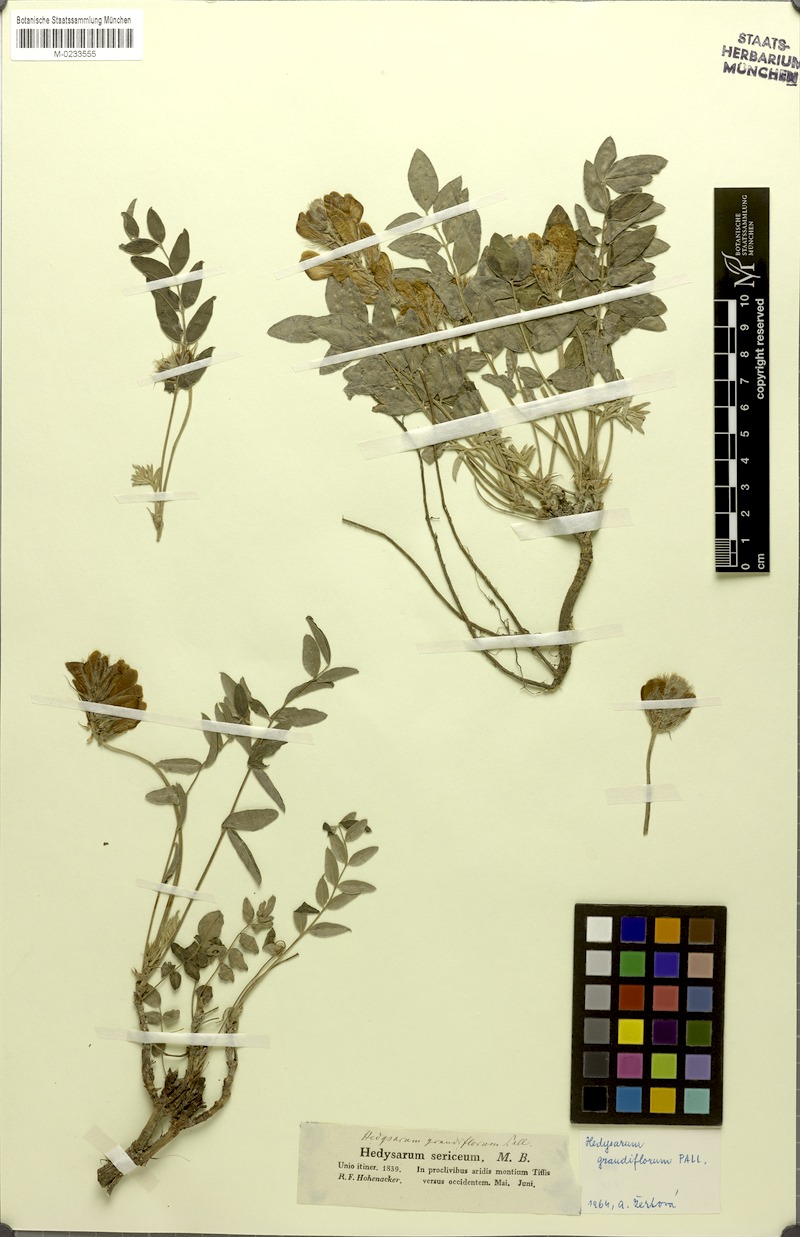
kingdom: Plantae
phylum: Tracheophyta
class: Magnoliopsida
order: Fabales
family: Fabaceae
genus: Hedysarum
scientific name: Hedysarum grandiflorum
